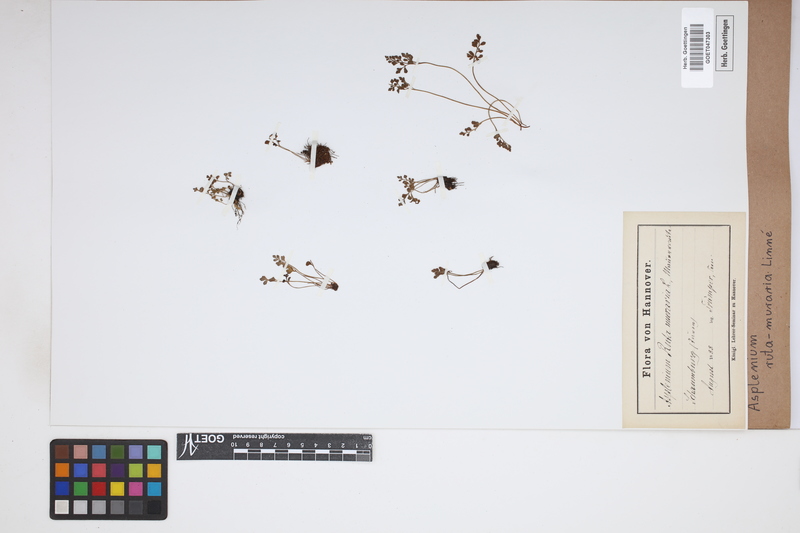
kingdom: Plantae
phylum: Tracheophyta
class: Polypodiopsida
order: Polypodiales
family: Aspleniaceae
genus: Asplenium
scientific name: Asplenium ruta-muraria
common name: Wall-rue
